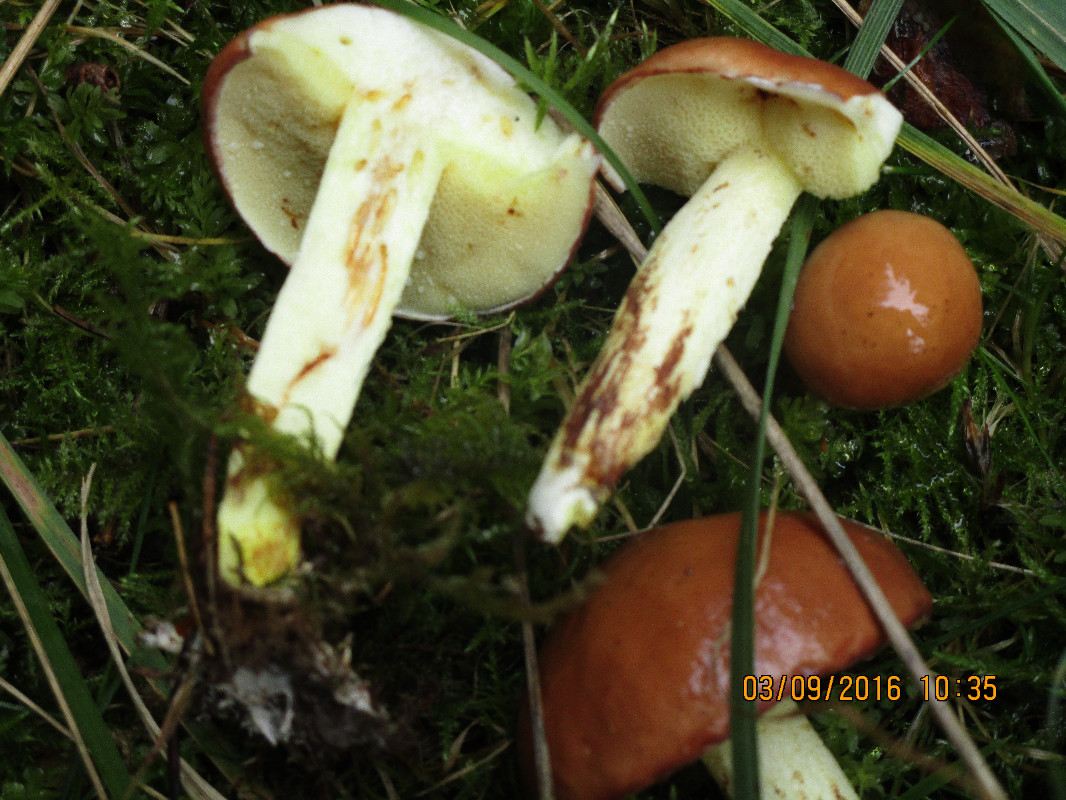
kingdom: Fungi
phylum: Basidiomycota
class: Agaricomycetes
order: Boletales
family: Suillaceae
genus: Suillus
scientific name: Suillus granulatus
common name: kornet slimrørhat
